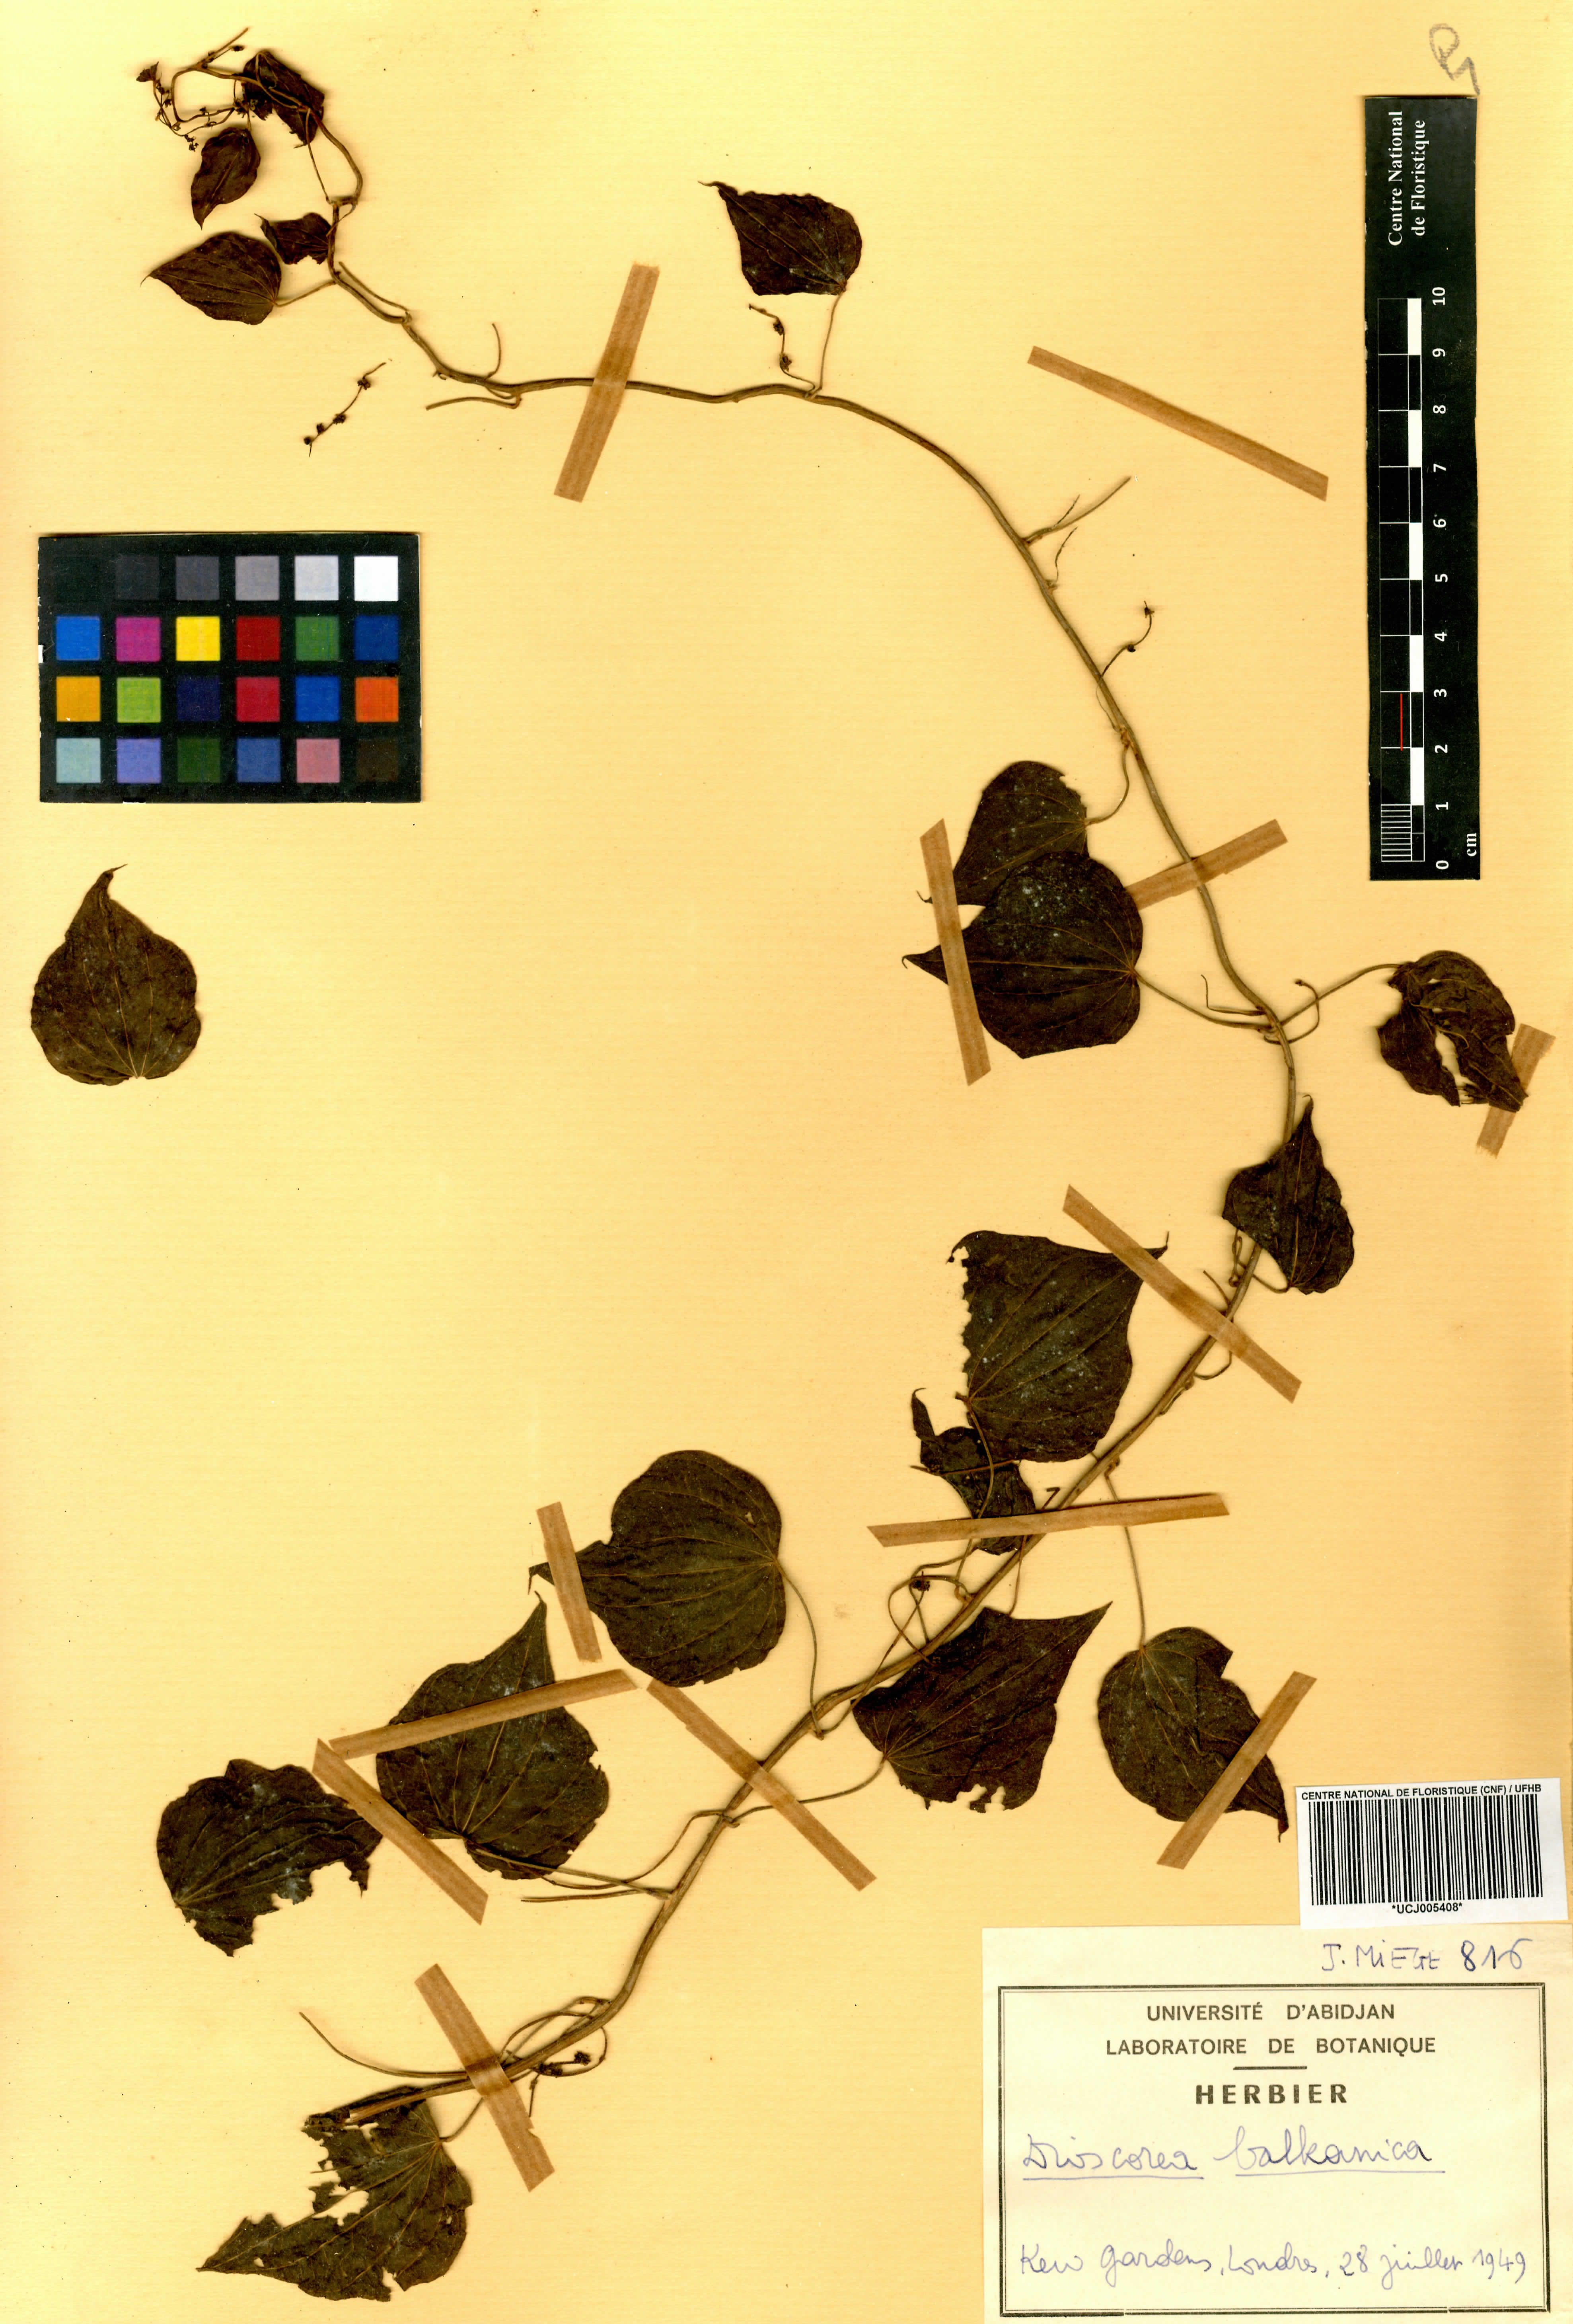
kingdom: Plantae
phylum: Tracheophyta
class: Liliopsida
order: Dioscoreales
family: Dioscoreaceae
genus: Dioscorea
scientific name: Dioscorea balcanica
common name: Balkan yam
